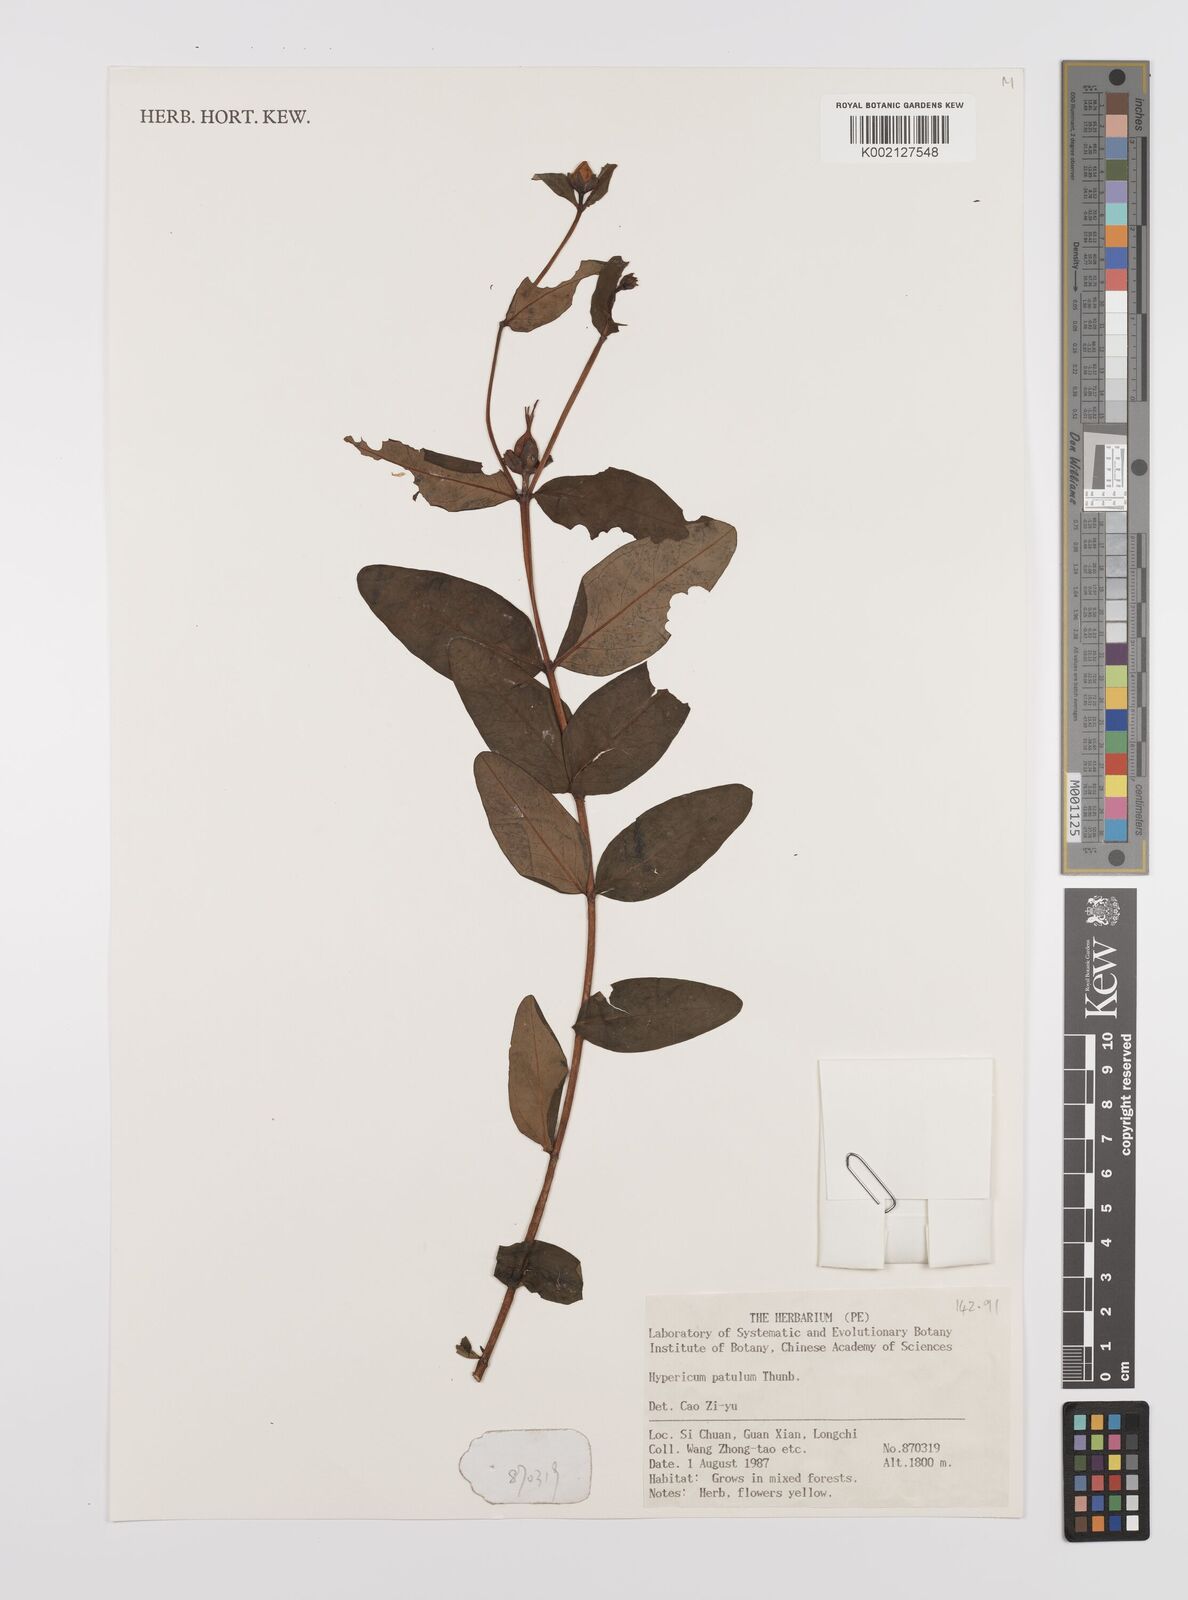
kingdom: Plantae
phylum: Tracheophyta
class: Magnoliopsida
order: Malpighiales
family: Hypericaceae
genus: Hypericum
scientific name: Hypericum patulum
